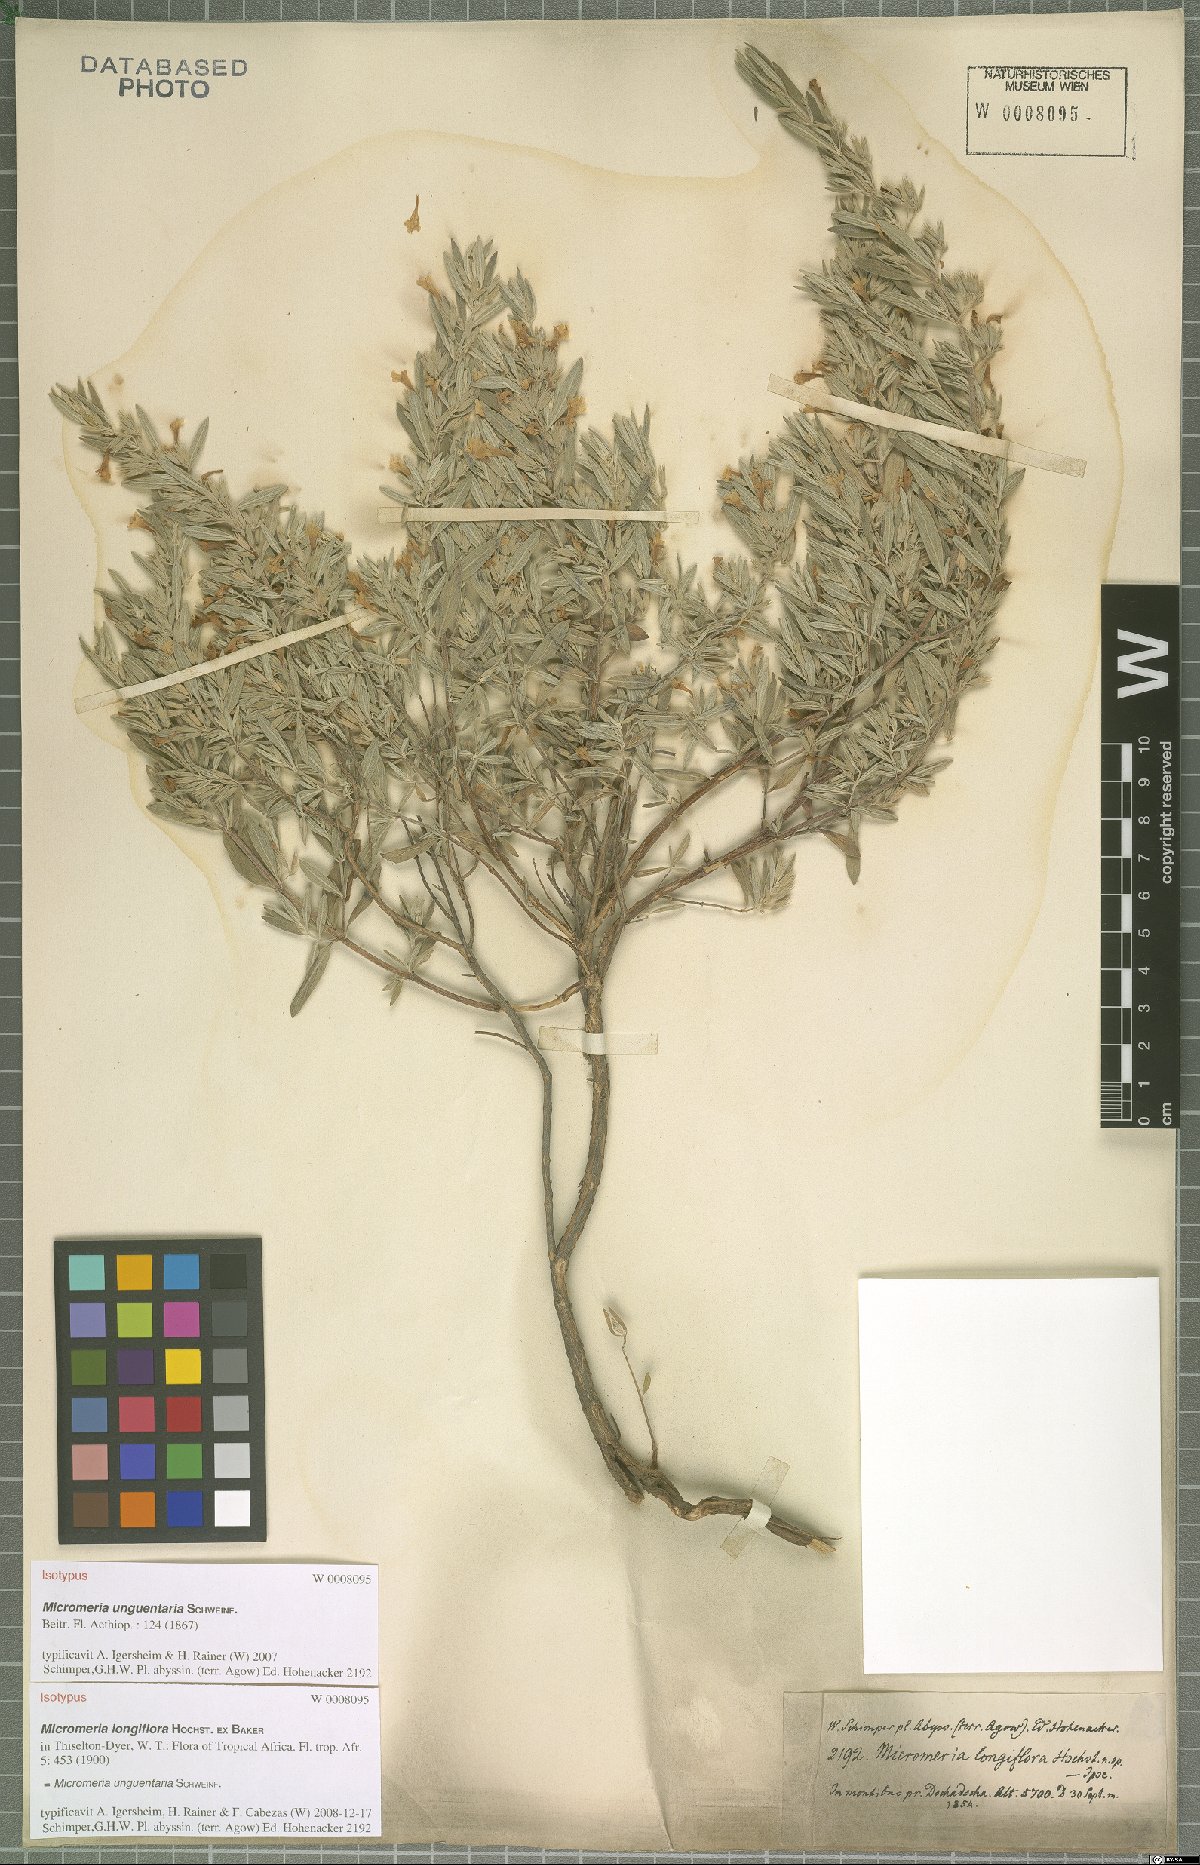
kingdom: Plantae
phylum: Tracheophyta
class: Magnoliopsida
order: Lamiales
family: Lamiaceae
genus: Micromeria
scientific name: Micromeria unguentaria
